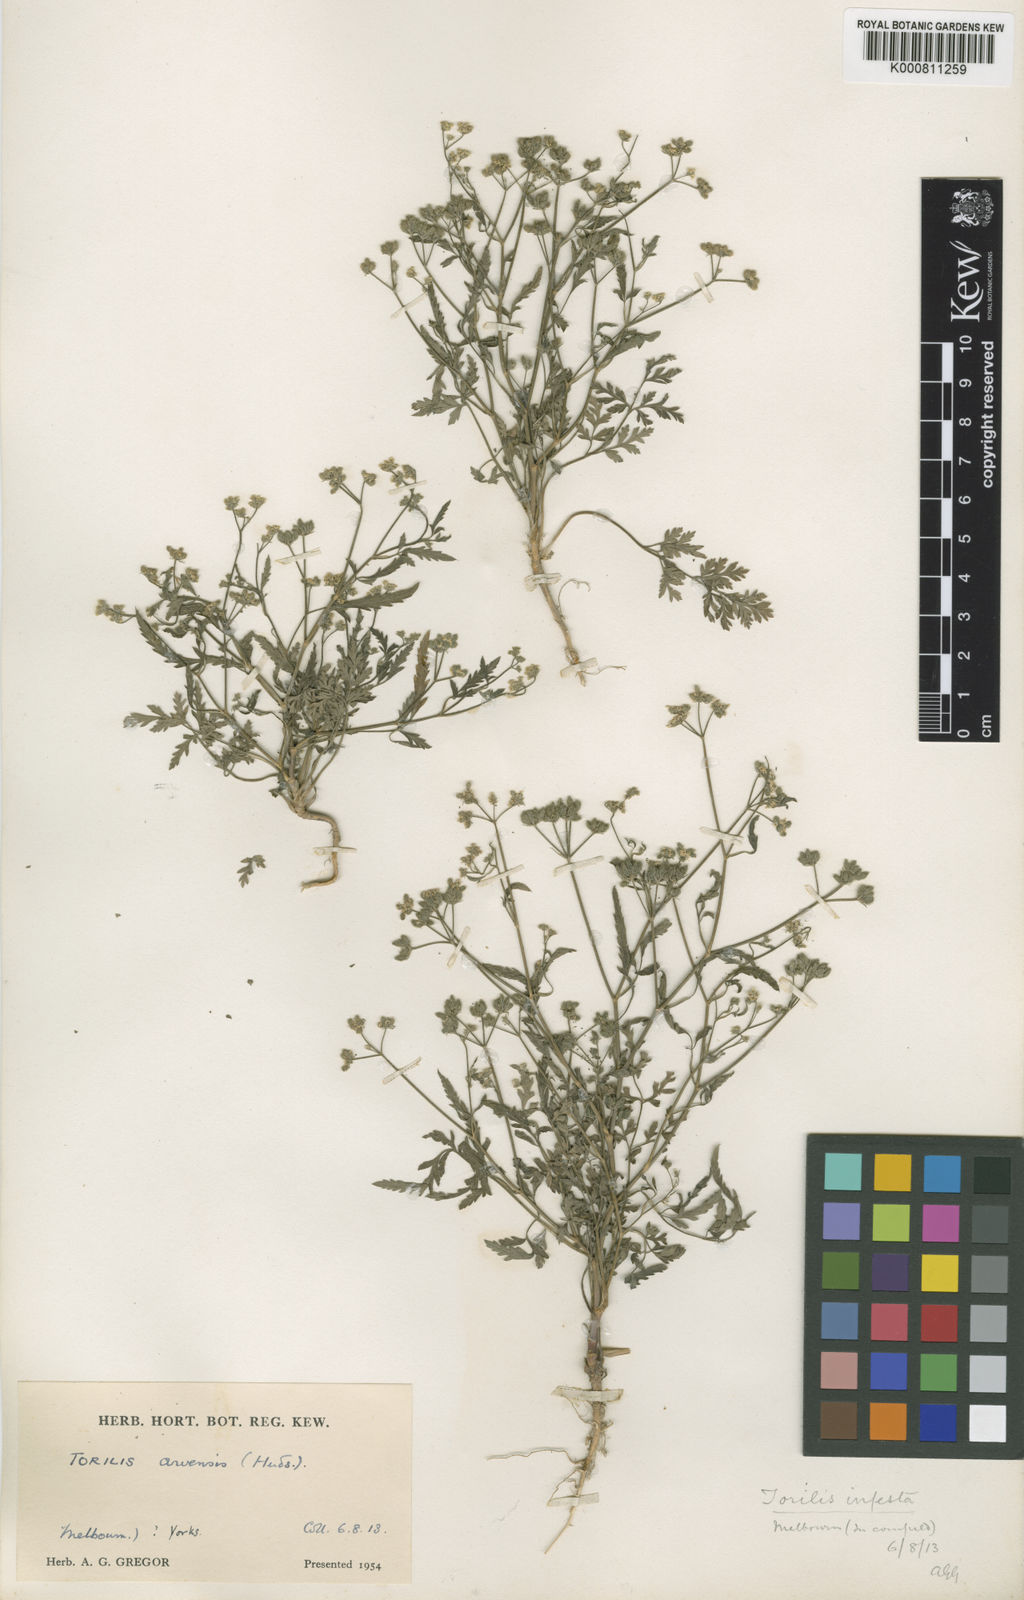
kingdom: Plantae
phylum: Tracheophyta
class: Magnoliopsida
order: Apiales
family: Apiaceae
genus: Torilis
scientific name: Torilis arvensis
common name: Spreading hedge-parsley
